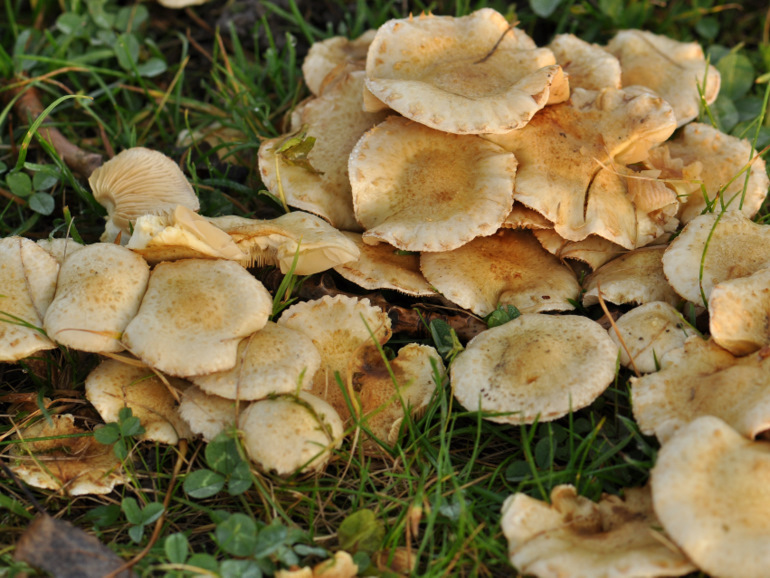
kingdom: Fungi
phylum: Basidiomycota
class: Agaricomycetes
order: Agaricales
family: Strophariaceae
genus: Pholiota
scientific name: Pholiota gummosa
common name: grøngul skælhat
